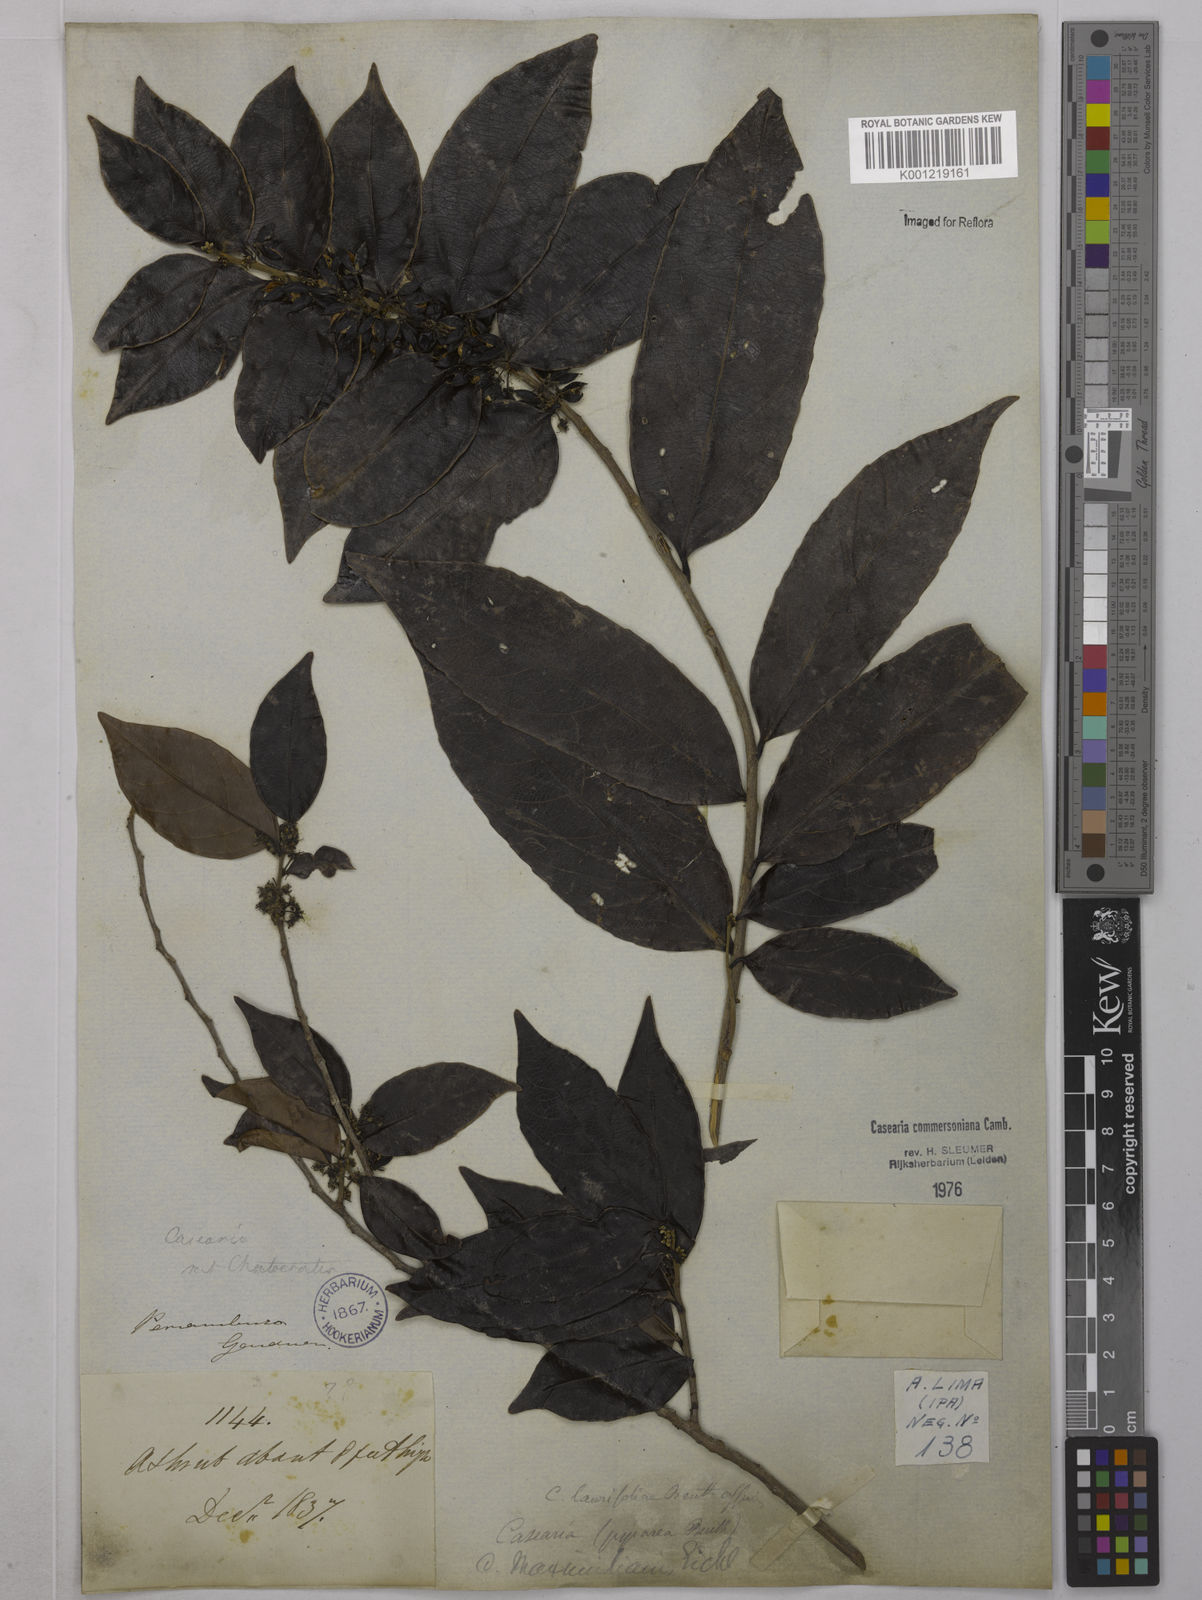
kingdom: Plantae
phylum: Tracheophyta
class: Magnoliopsida
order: Malpighiales
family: Salicaceae
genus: Piparea
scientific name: Piparea dentata
